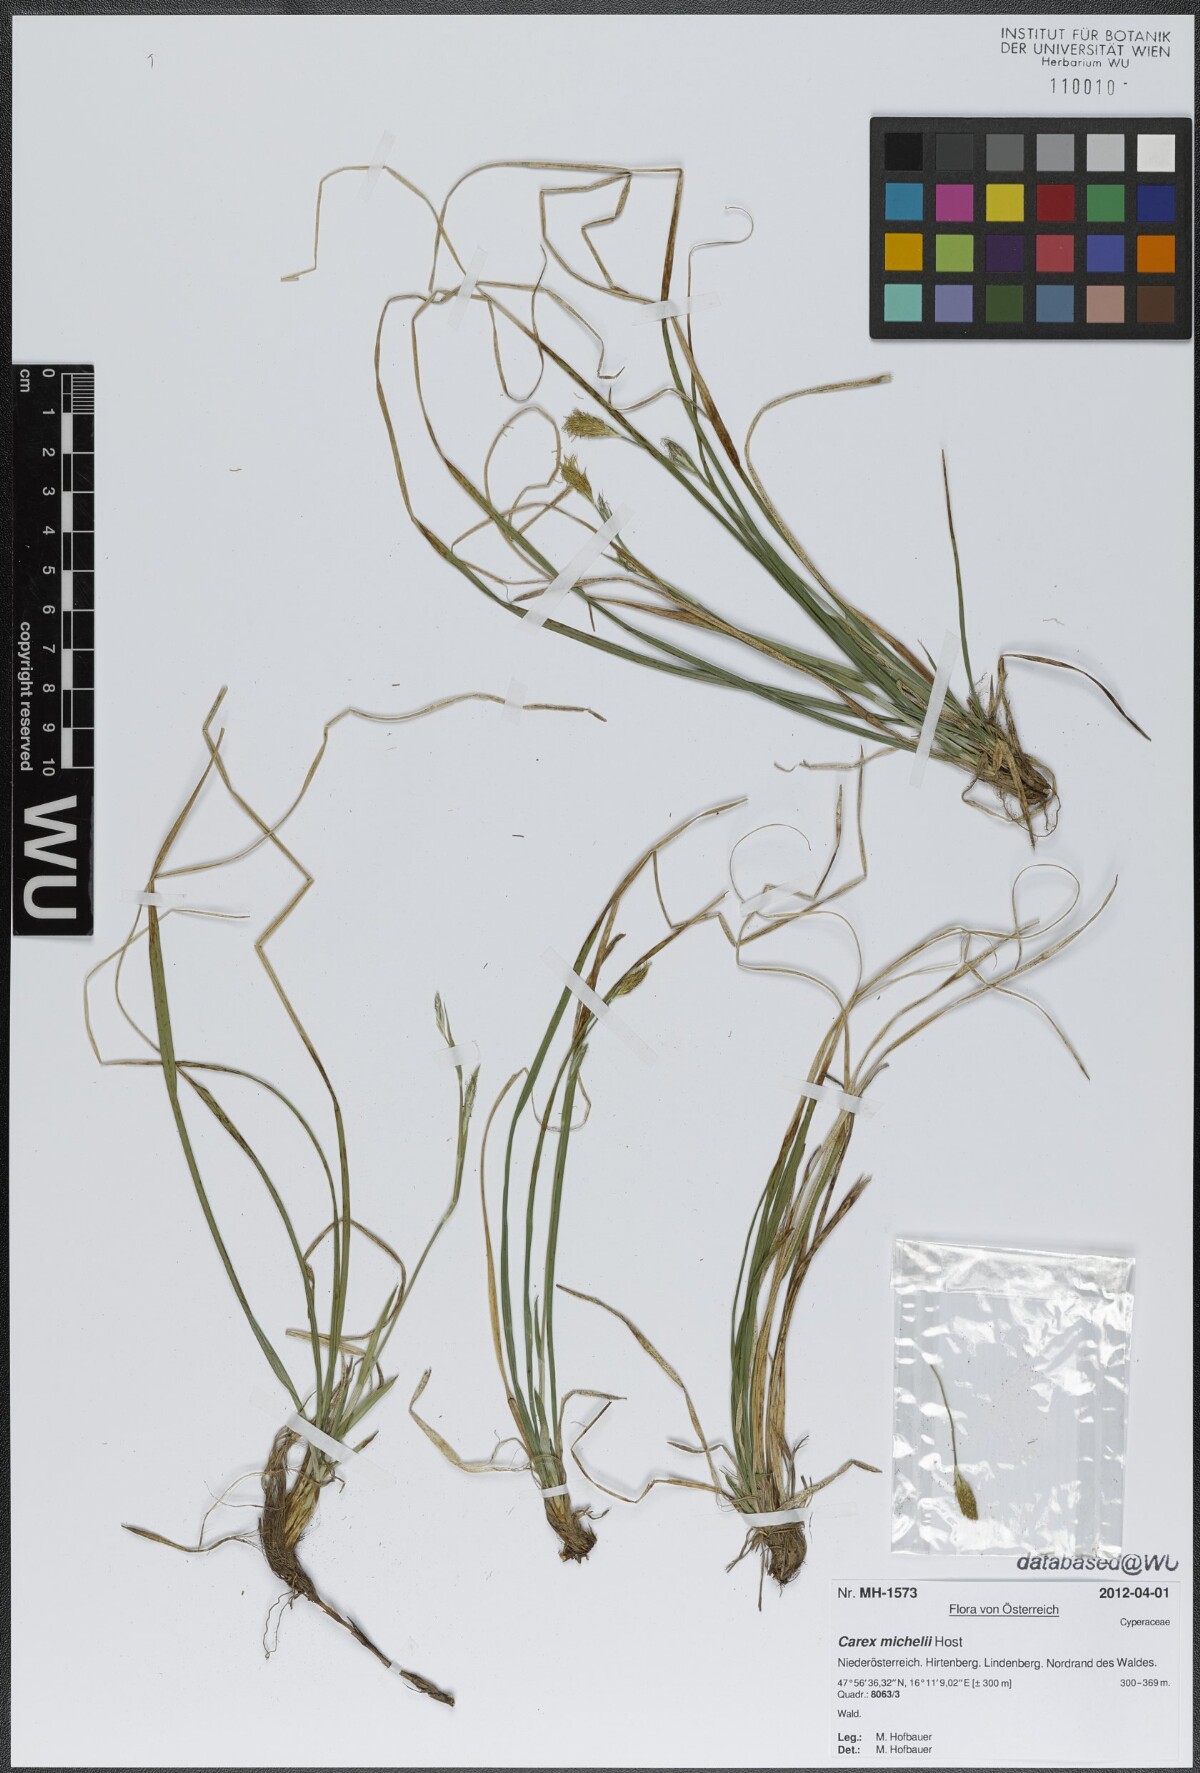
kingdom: Plantae
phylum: Tracheophyta
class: Liliopsida
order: Poales
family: Cyperaceae
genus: Carex
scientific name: Carex michelii
